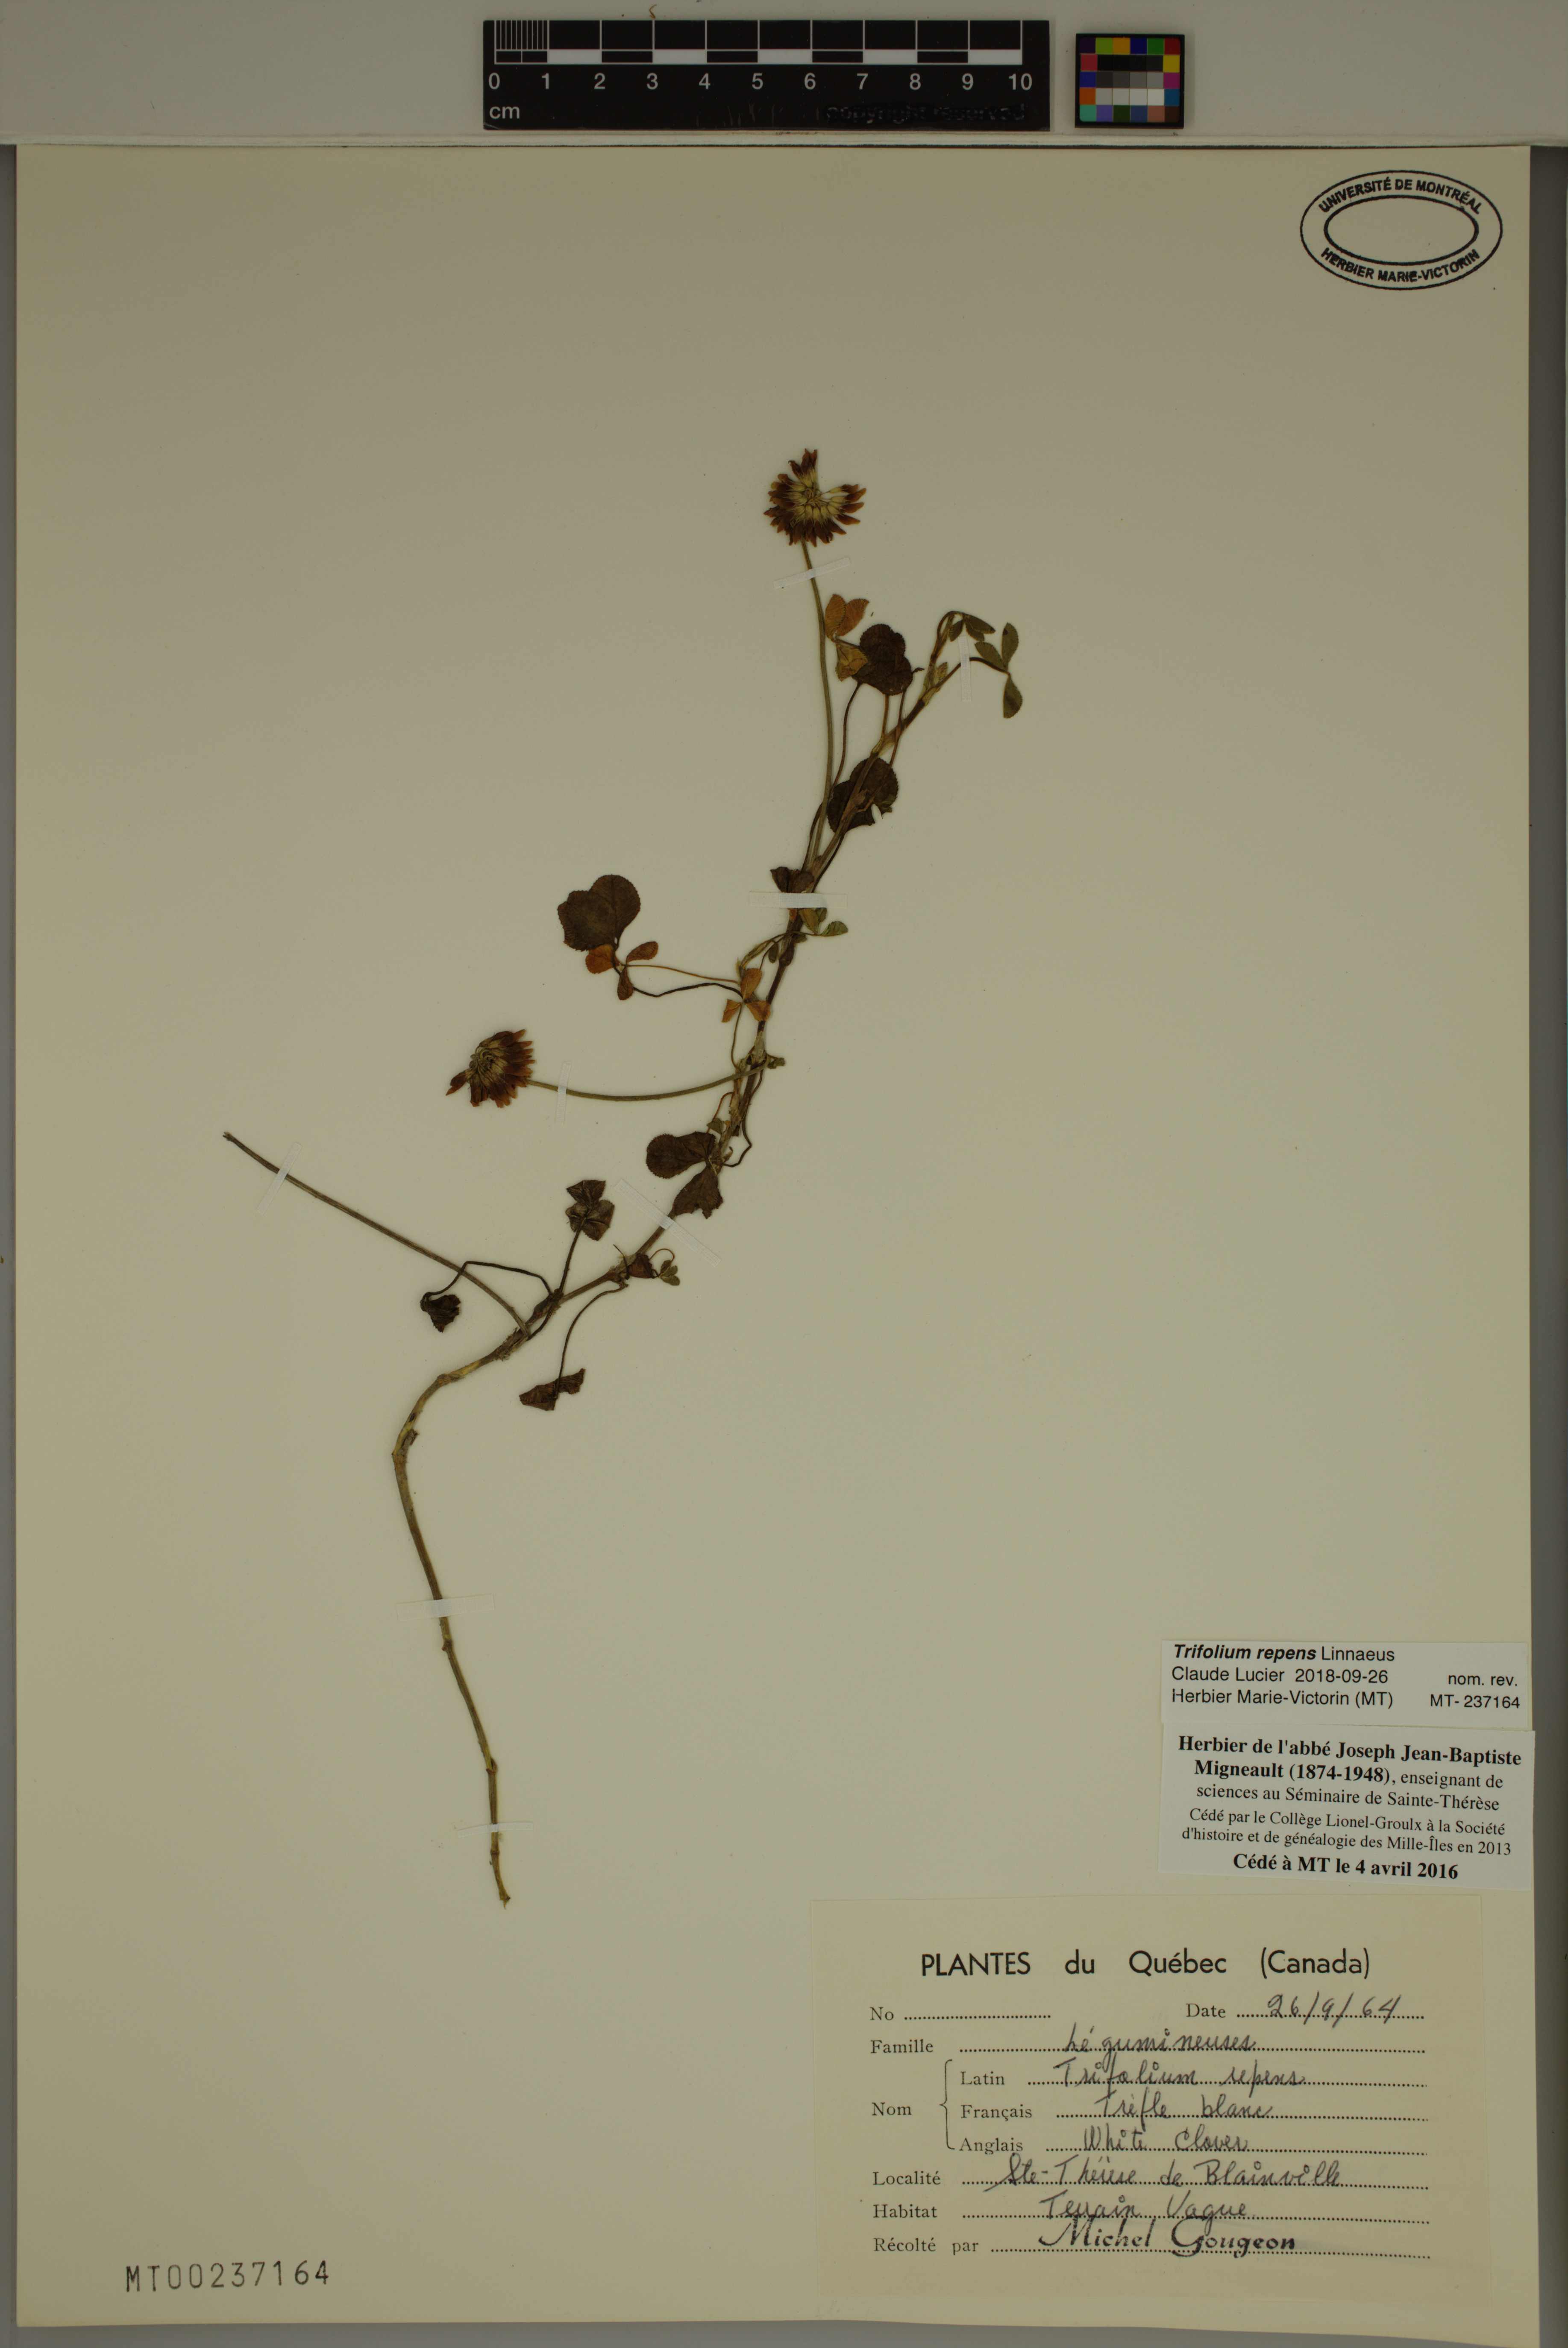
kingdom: Plantae
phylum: Tracheophyta
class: Magnoliopsida
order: Fabales
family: Fabaceae
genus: Trifolium
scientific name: Trifolium repens
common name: White clover
